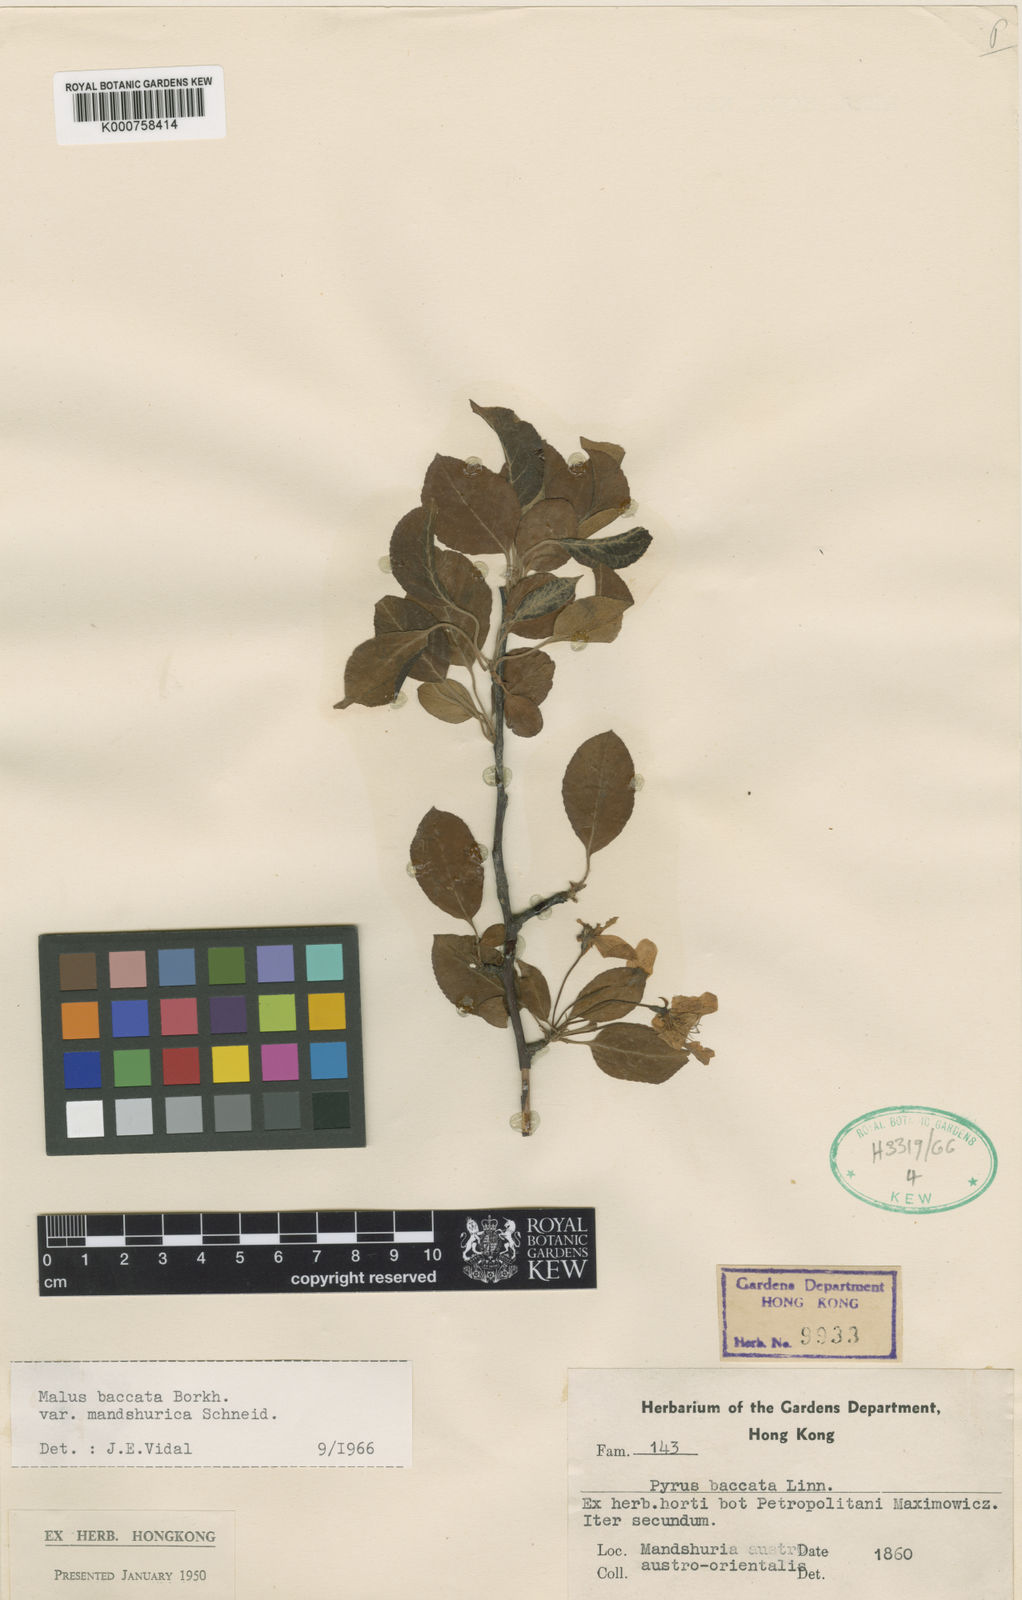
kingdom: Plantae
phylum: Tracheophyta
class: Magnoliopsida
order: Rosales
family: Rosaceae
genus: Malus
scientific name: Malus
